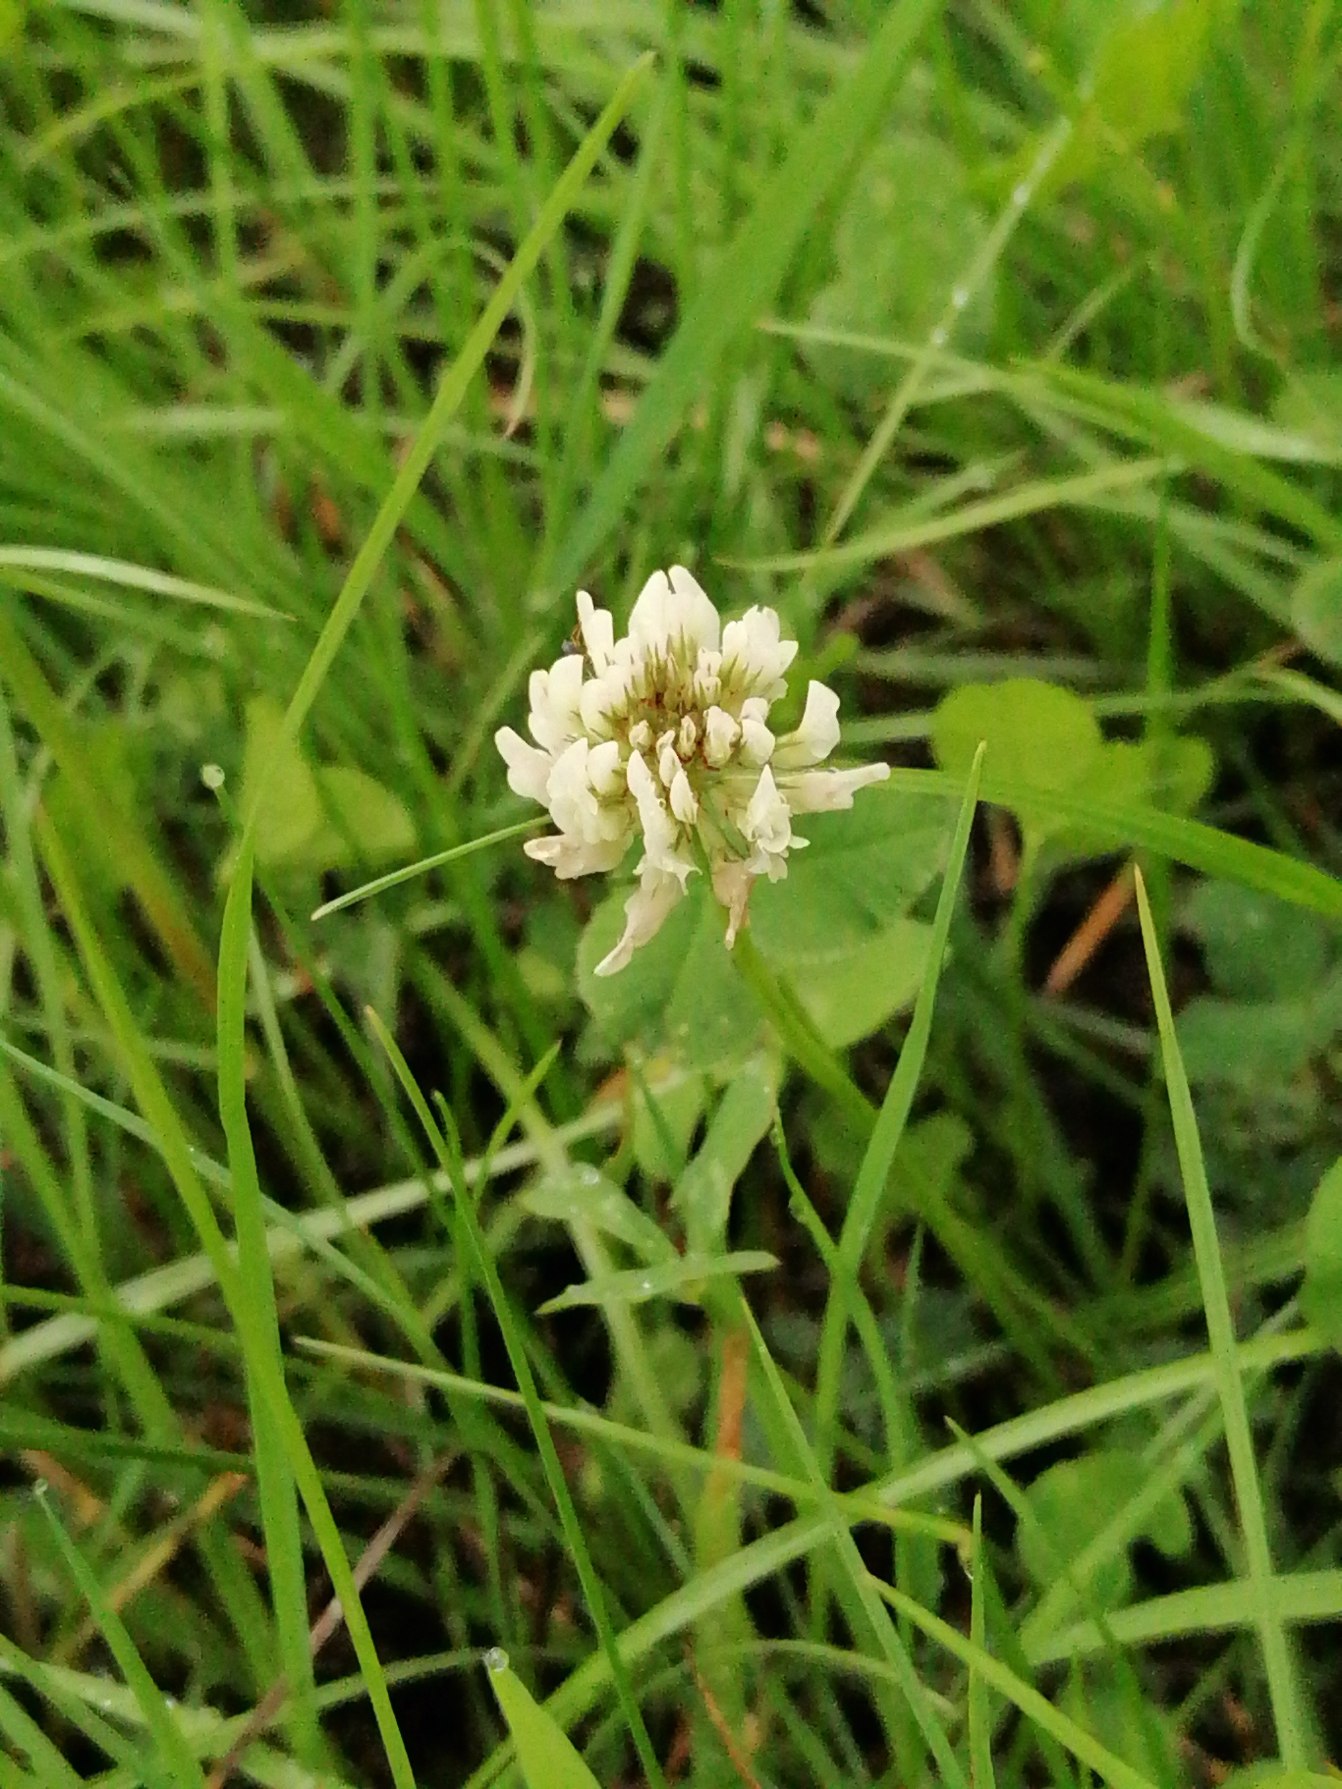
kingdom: Plantae
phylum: Tracheophyta
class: Magnoliopsida
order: Fabales
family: Fabaceae
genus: Trifolium
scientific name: Trifolium repens
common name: Hvid-kløver
